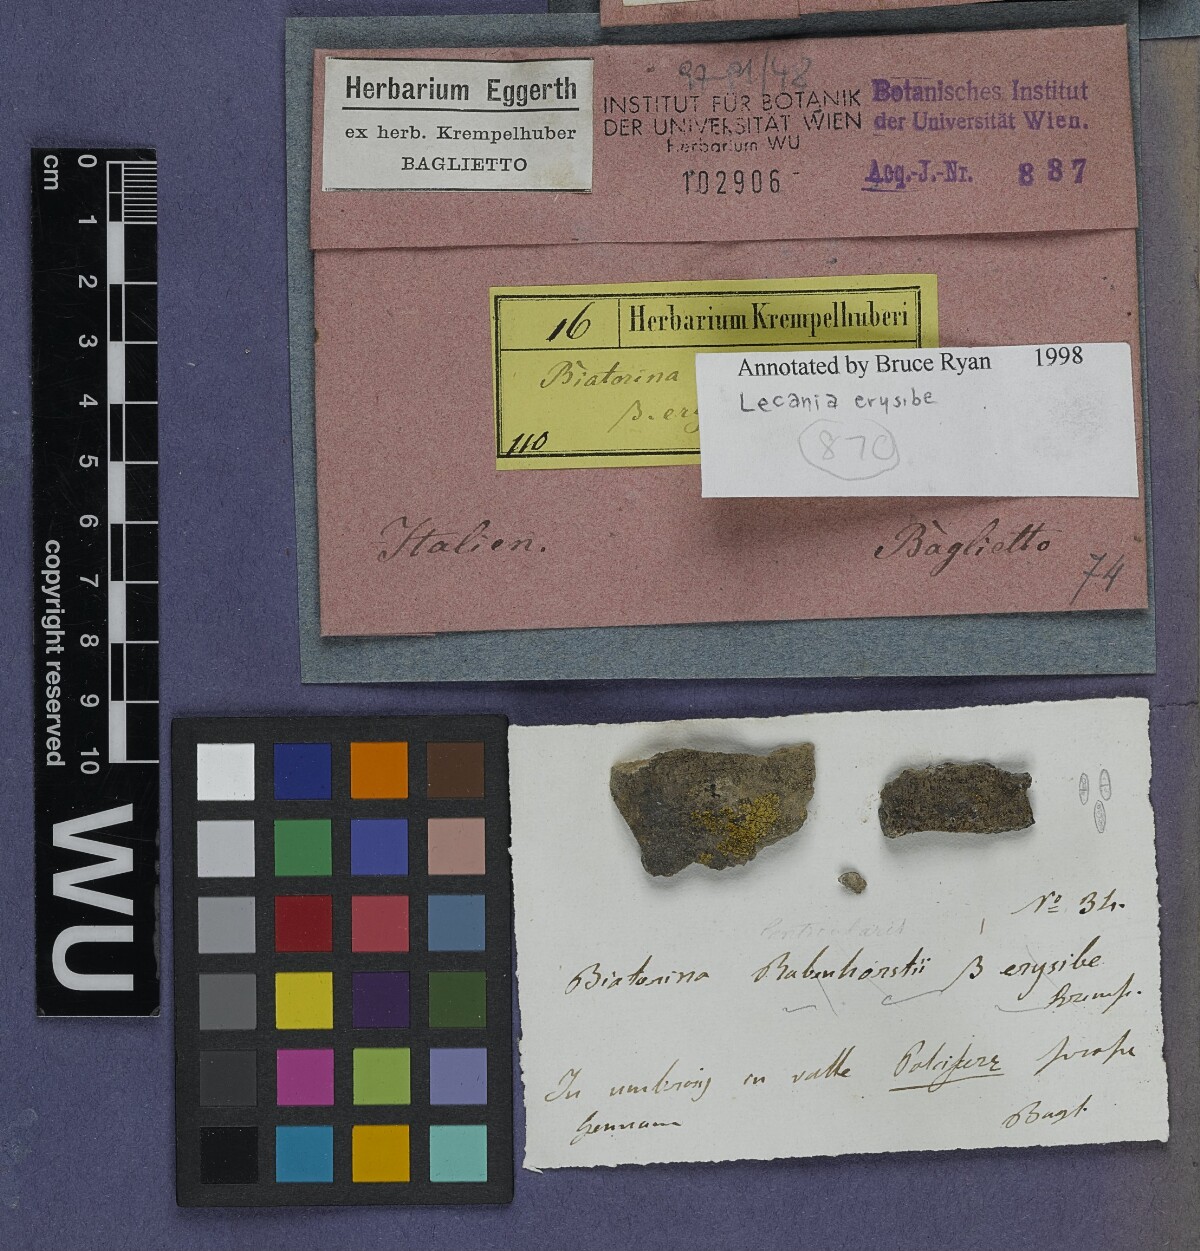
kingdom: Fungi
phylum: Ascomycota
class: Lecanoromycetes
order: Lecanorales
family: Ramalinaceae
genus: Lecania
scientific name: Lecania erysibe
